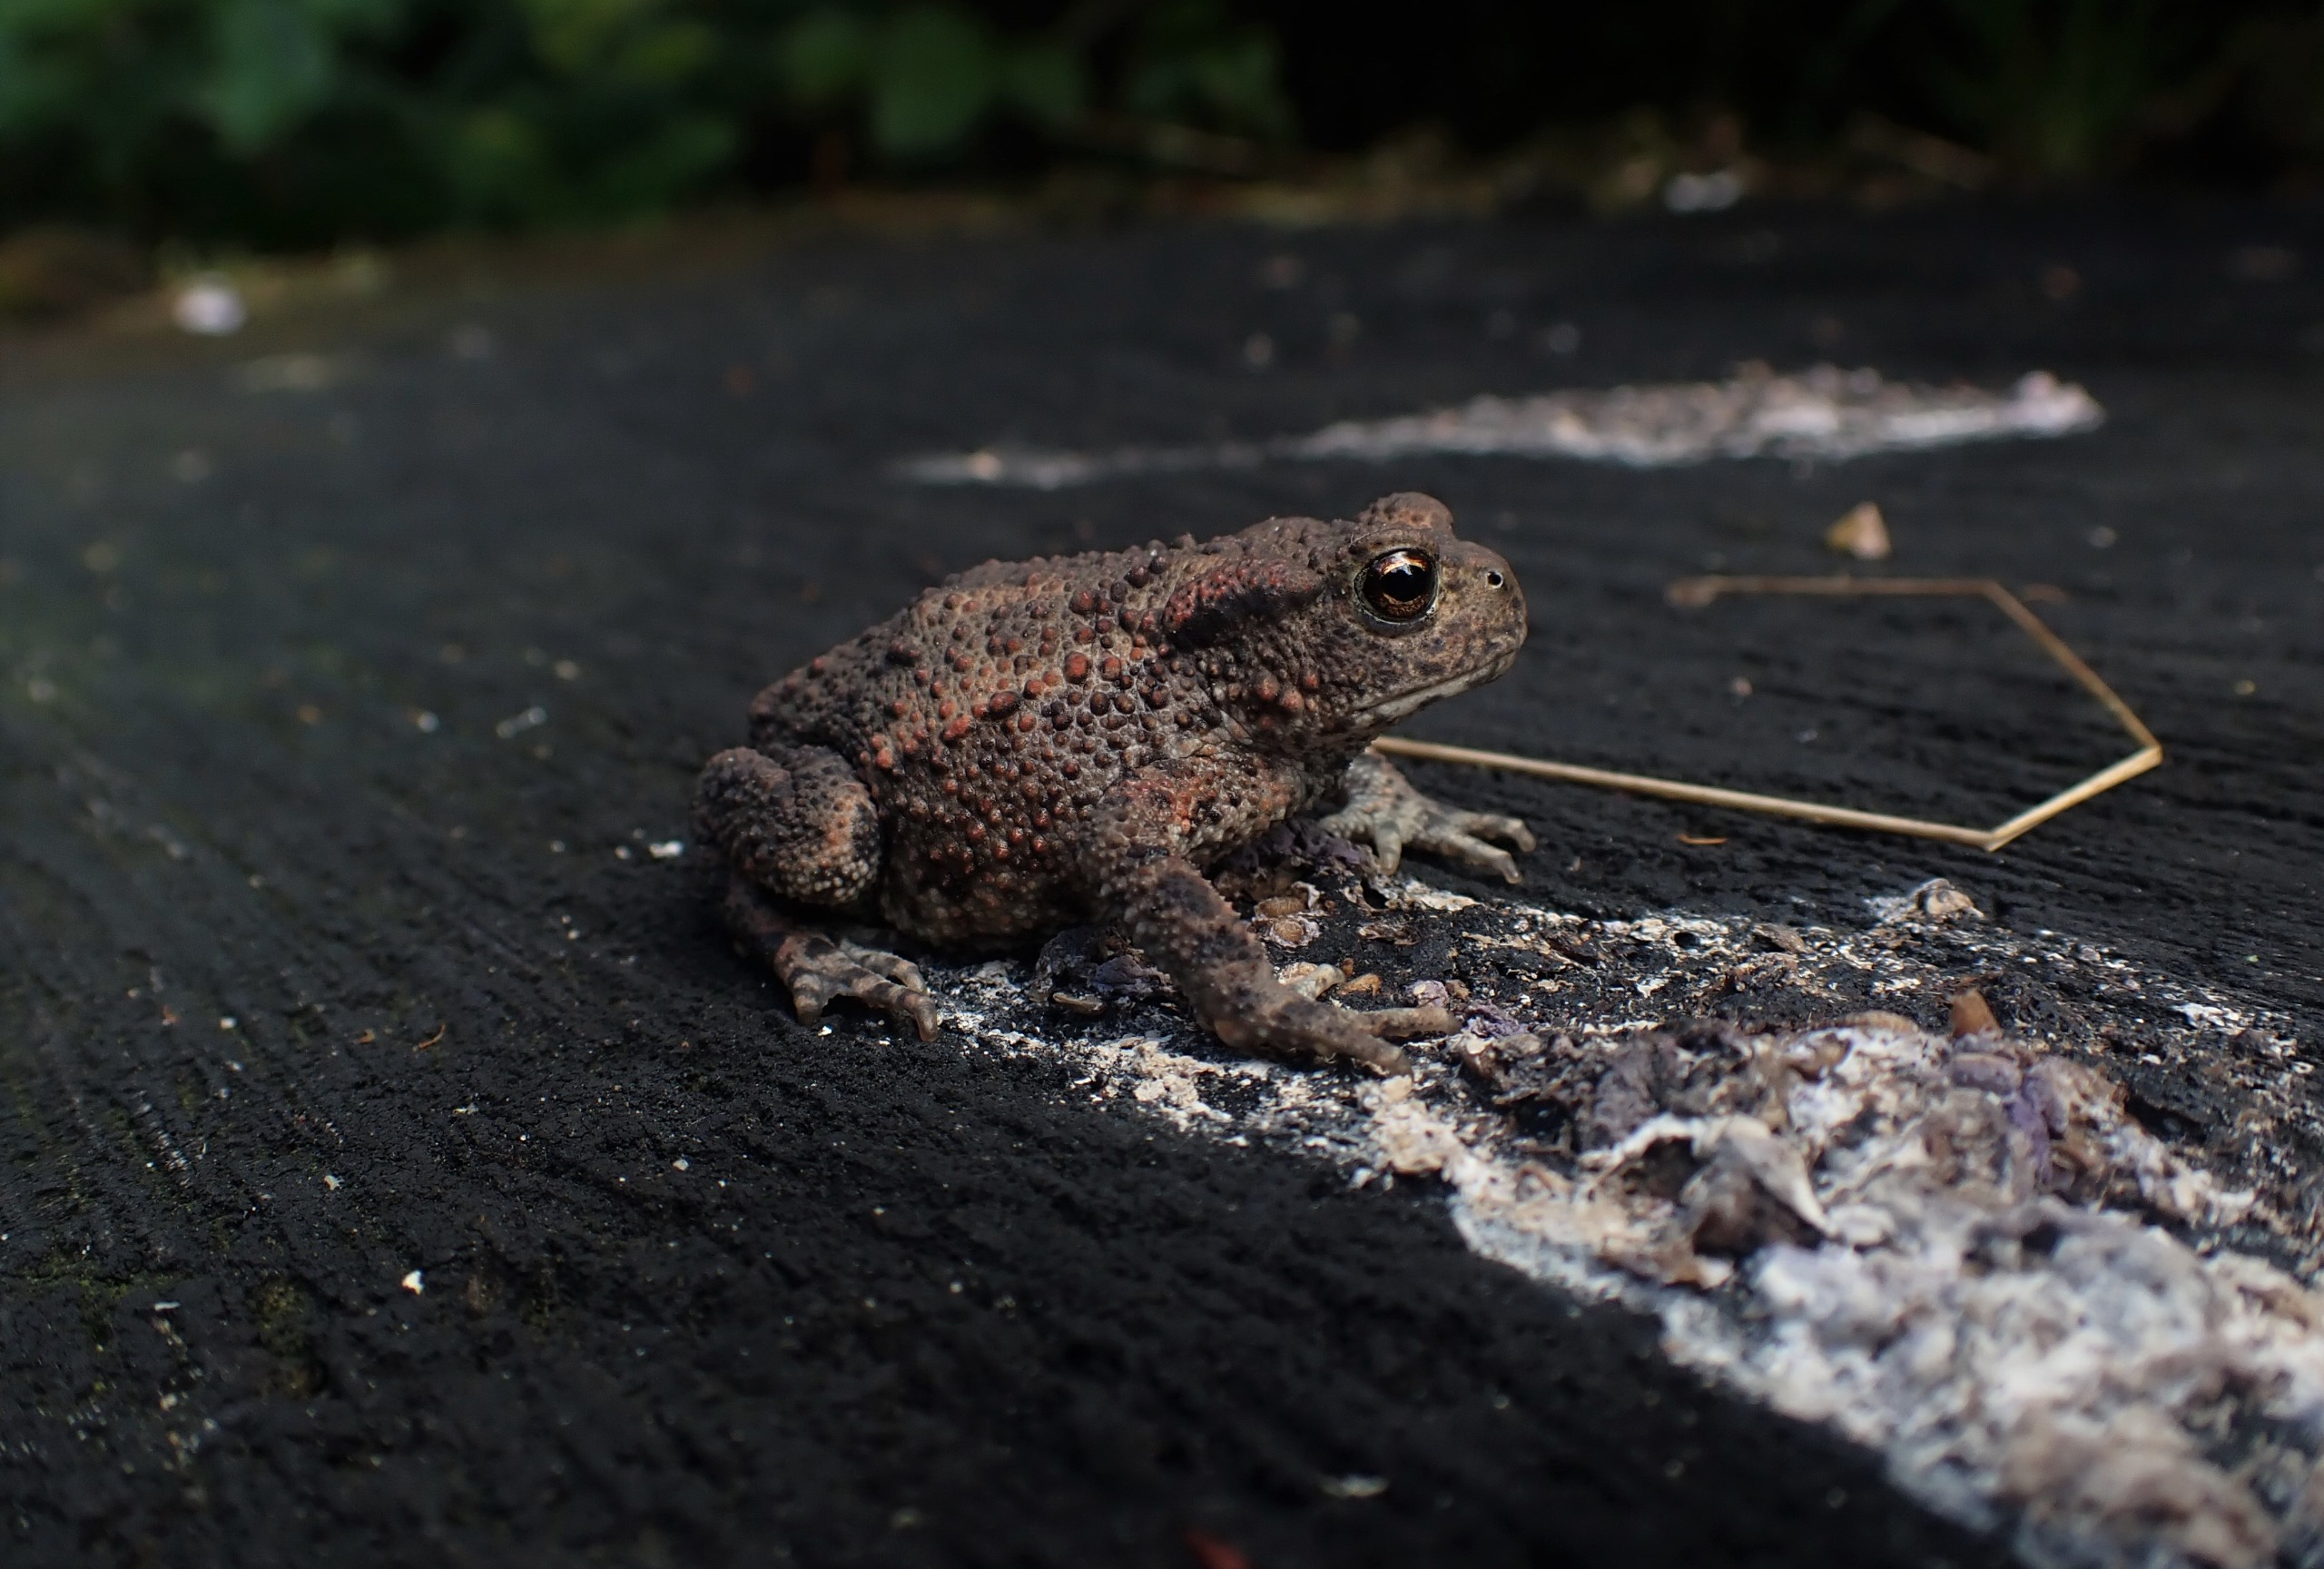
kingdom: Animalia
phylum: Chordata
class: Amphibia
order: Anura
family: Bufonidae
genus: Bufo
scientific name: Bufo bufo
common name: Skrubtudse
